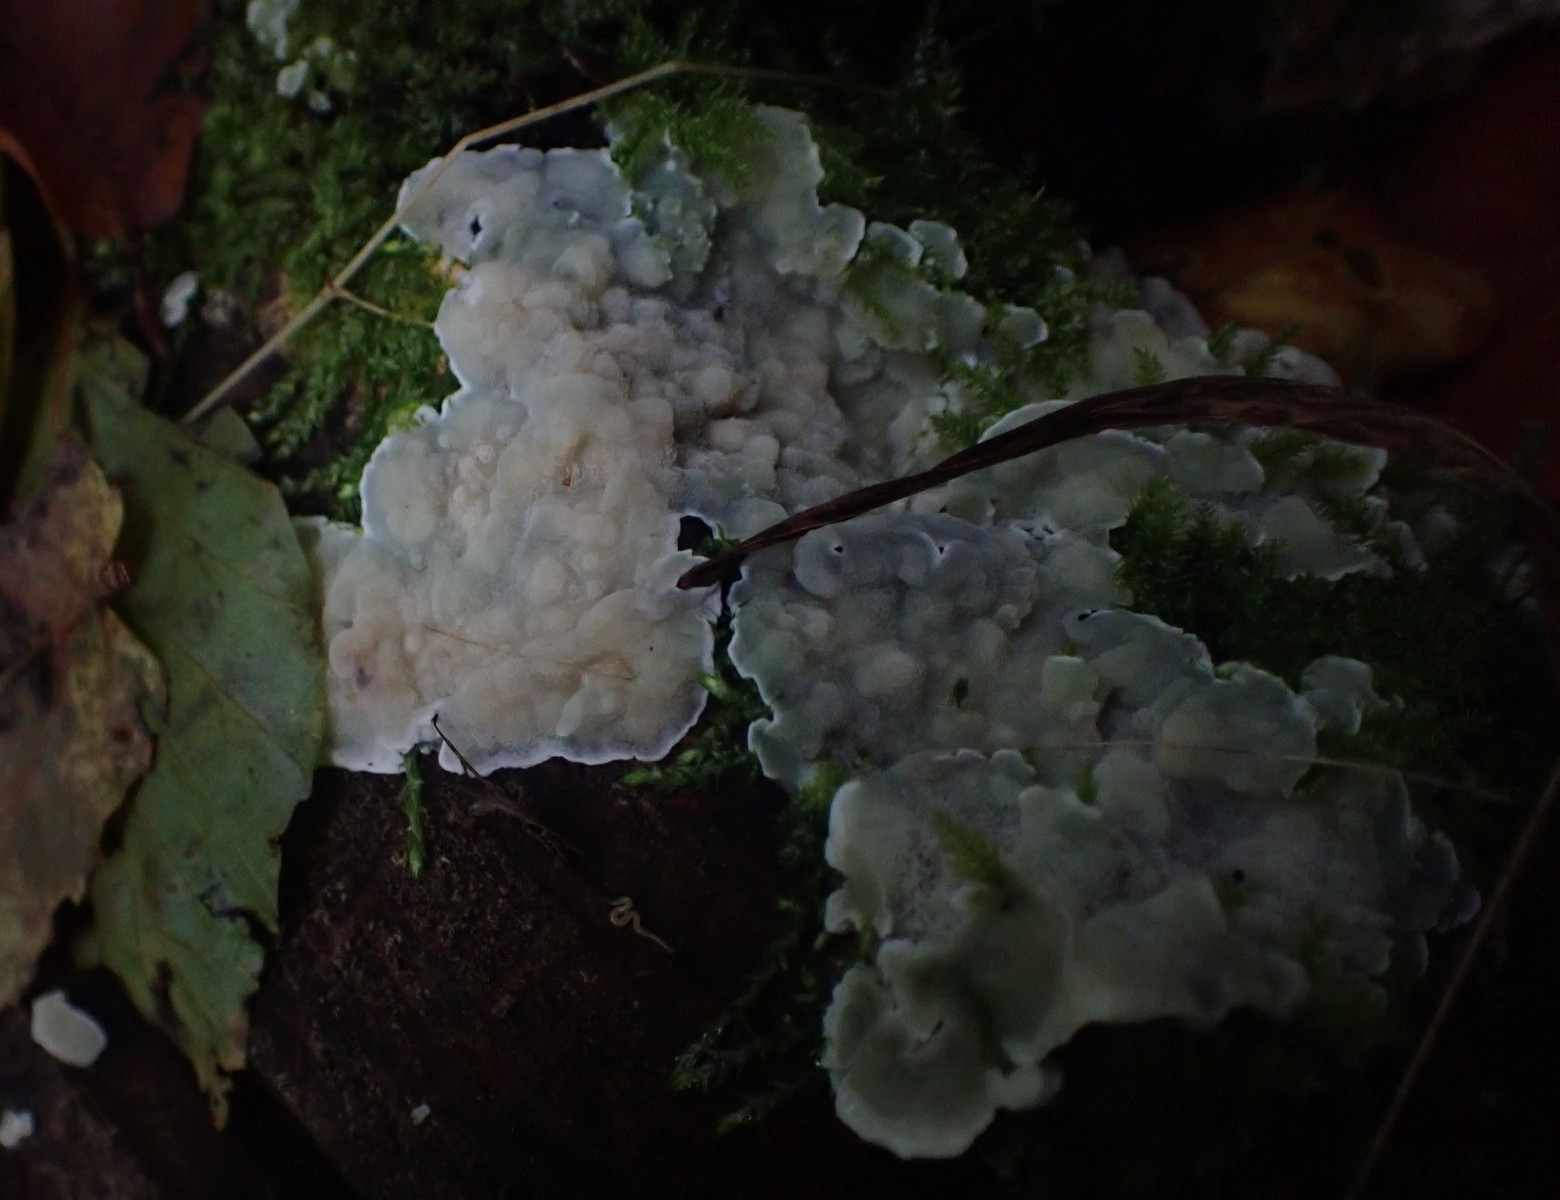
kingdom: Fungi
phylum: Basidiomycota
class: Agaricomycetes
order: Polyporales
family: Meruliaceae
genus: Physisporinus
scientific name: Physisporinus vitreus
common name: mastesvamp
